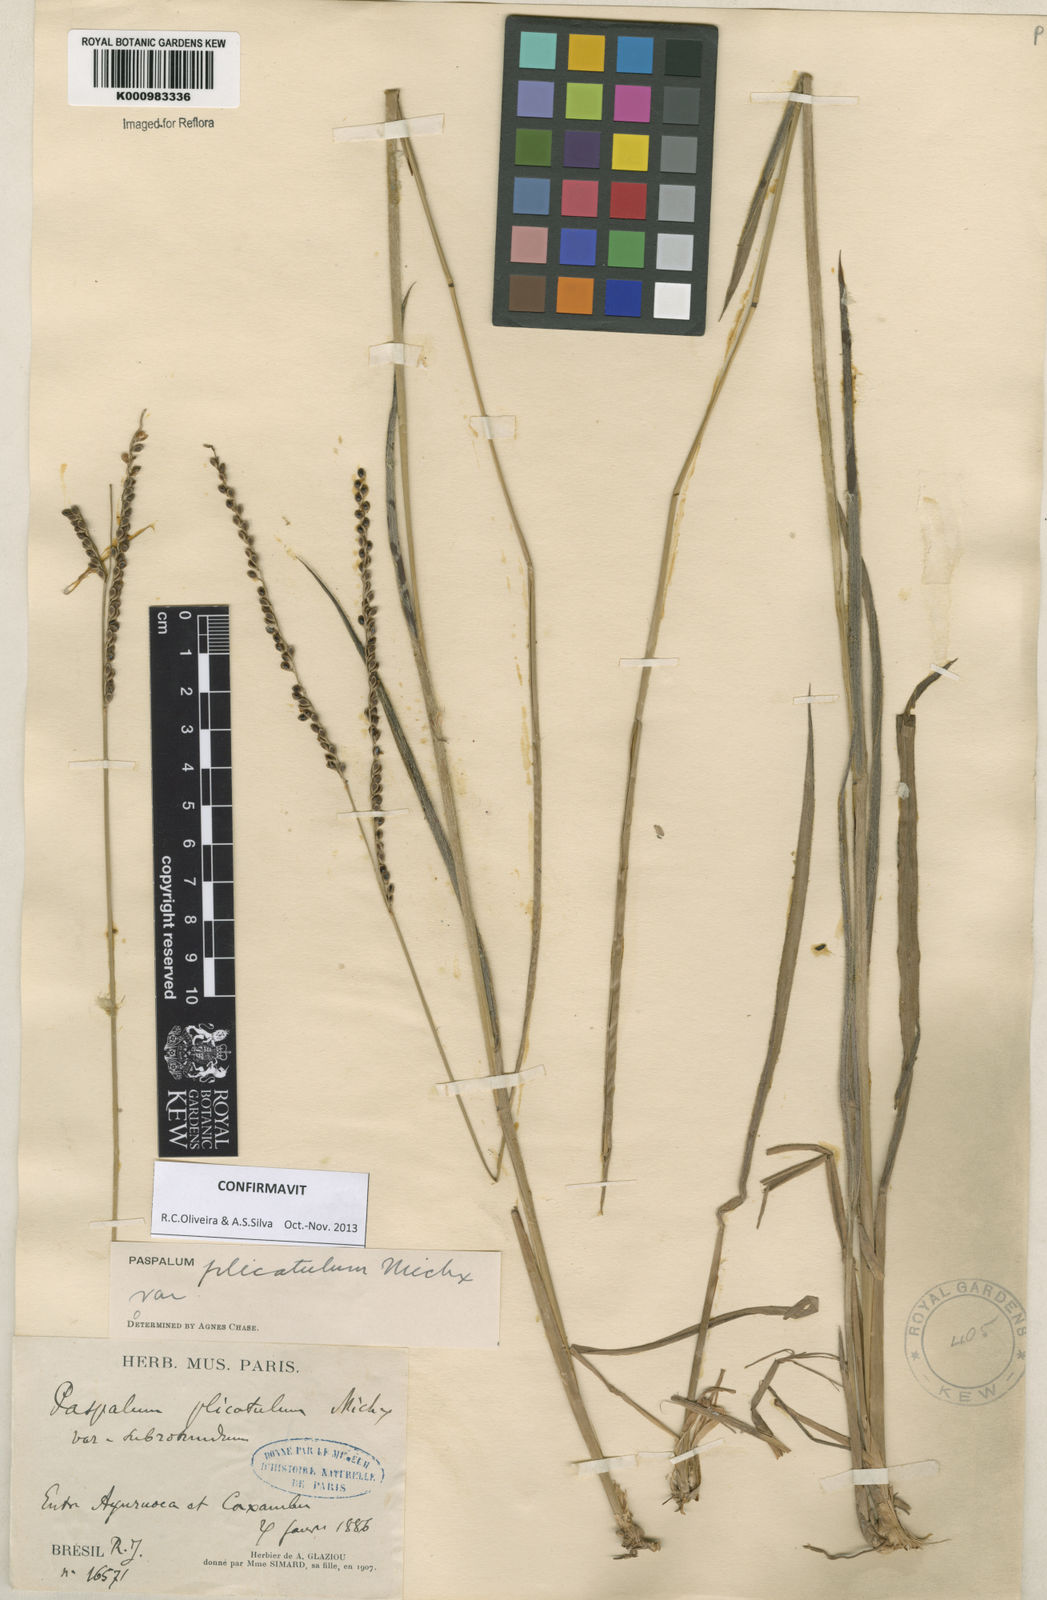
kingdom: Plantae
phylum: Tracheophyta
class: Liliopsida
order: Poales
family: Poaceae
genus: Paspalum
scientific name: Paspalum
